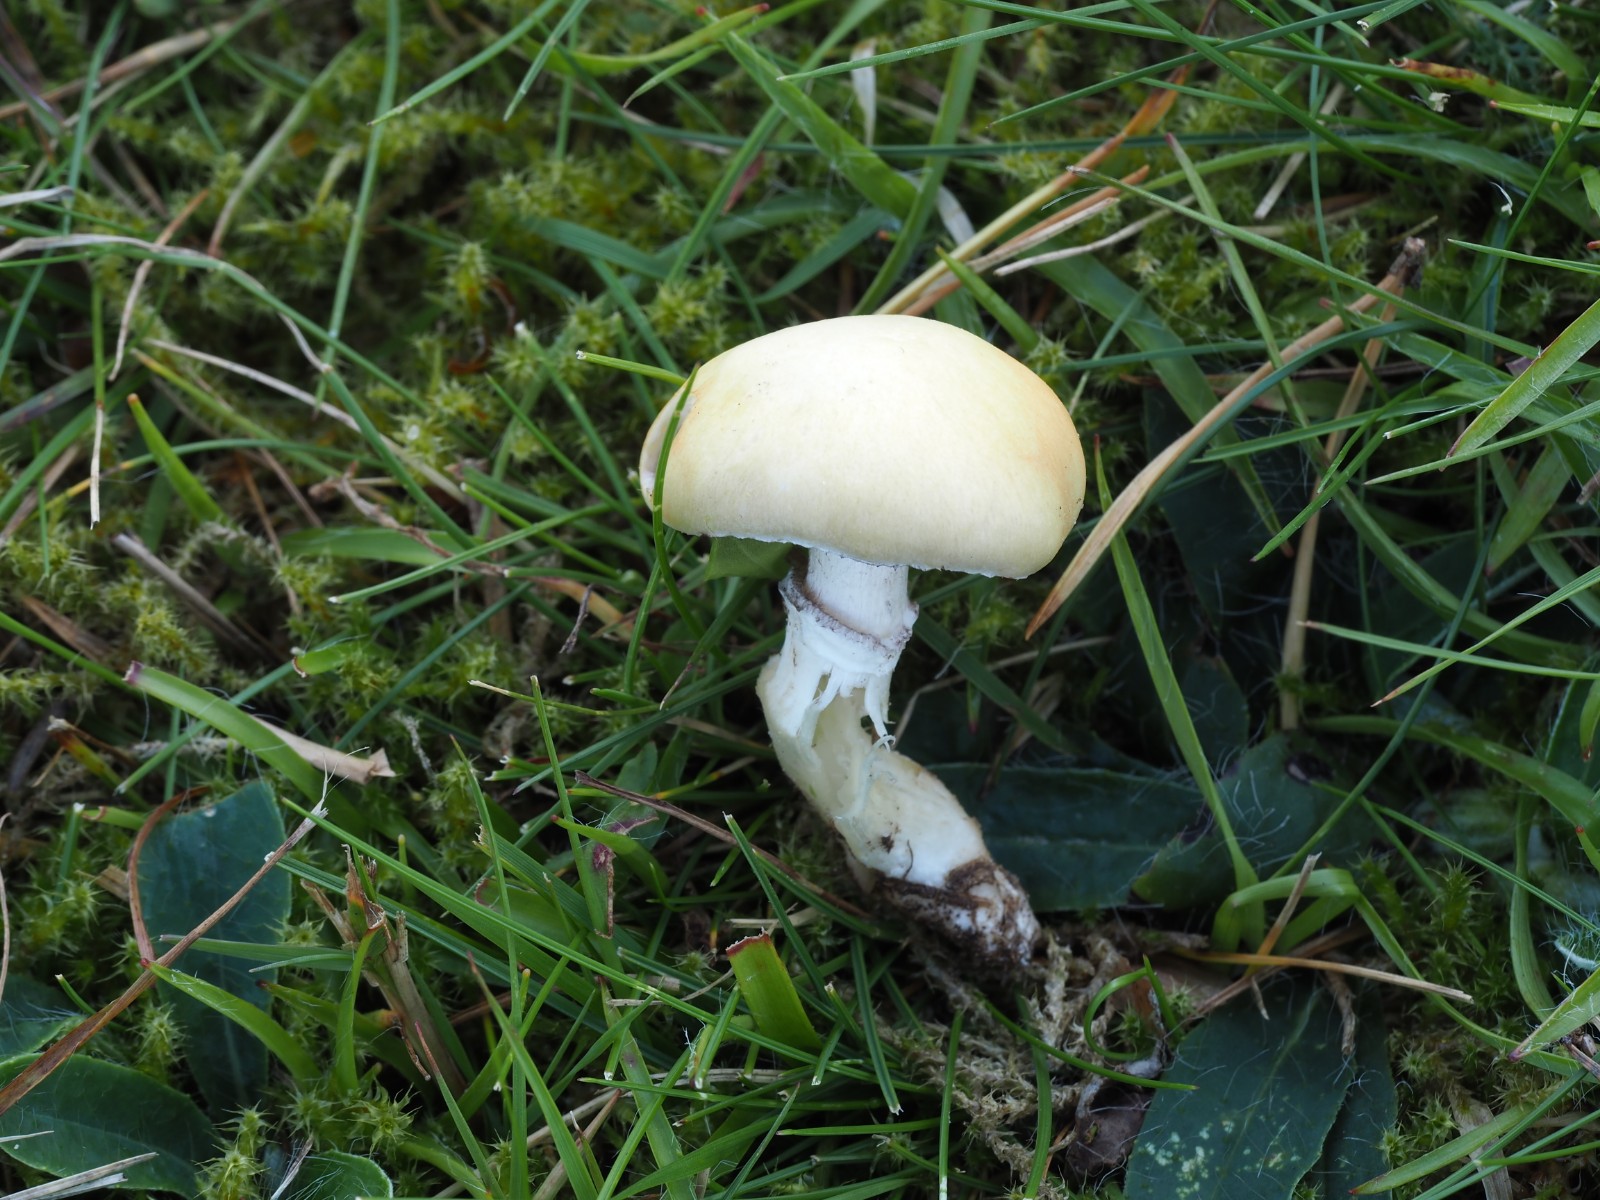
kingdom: Fungi
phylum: Basidiomycota
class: Agaricomycetes
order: Agaricales
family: Hymenogastraceae
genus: Psilocybe
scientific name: Psilocybe coronilla
